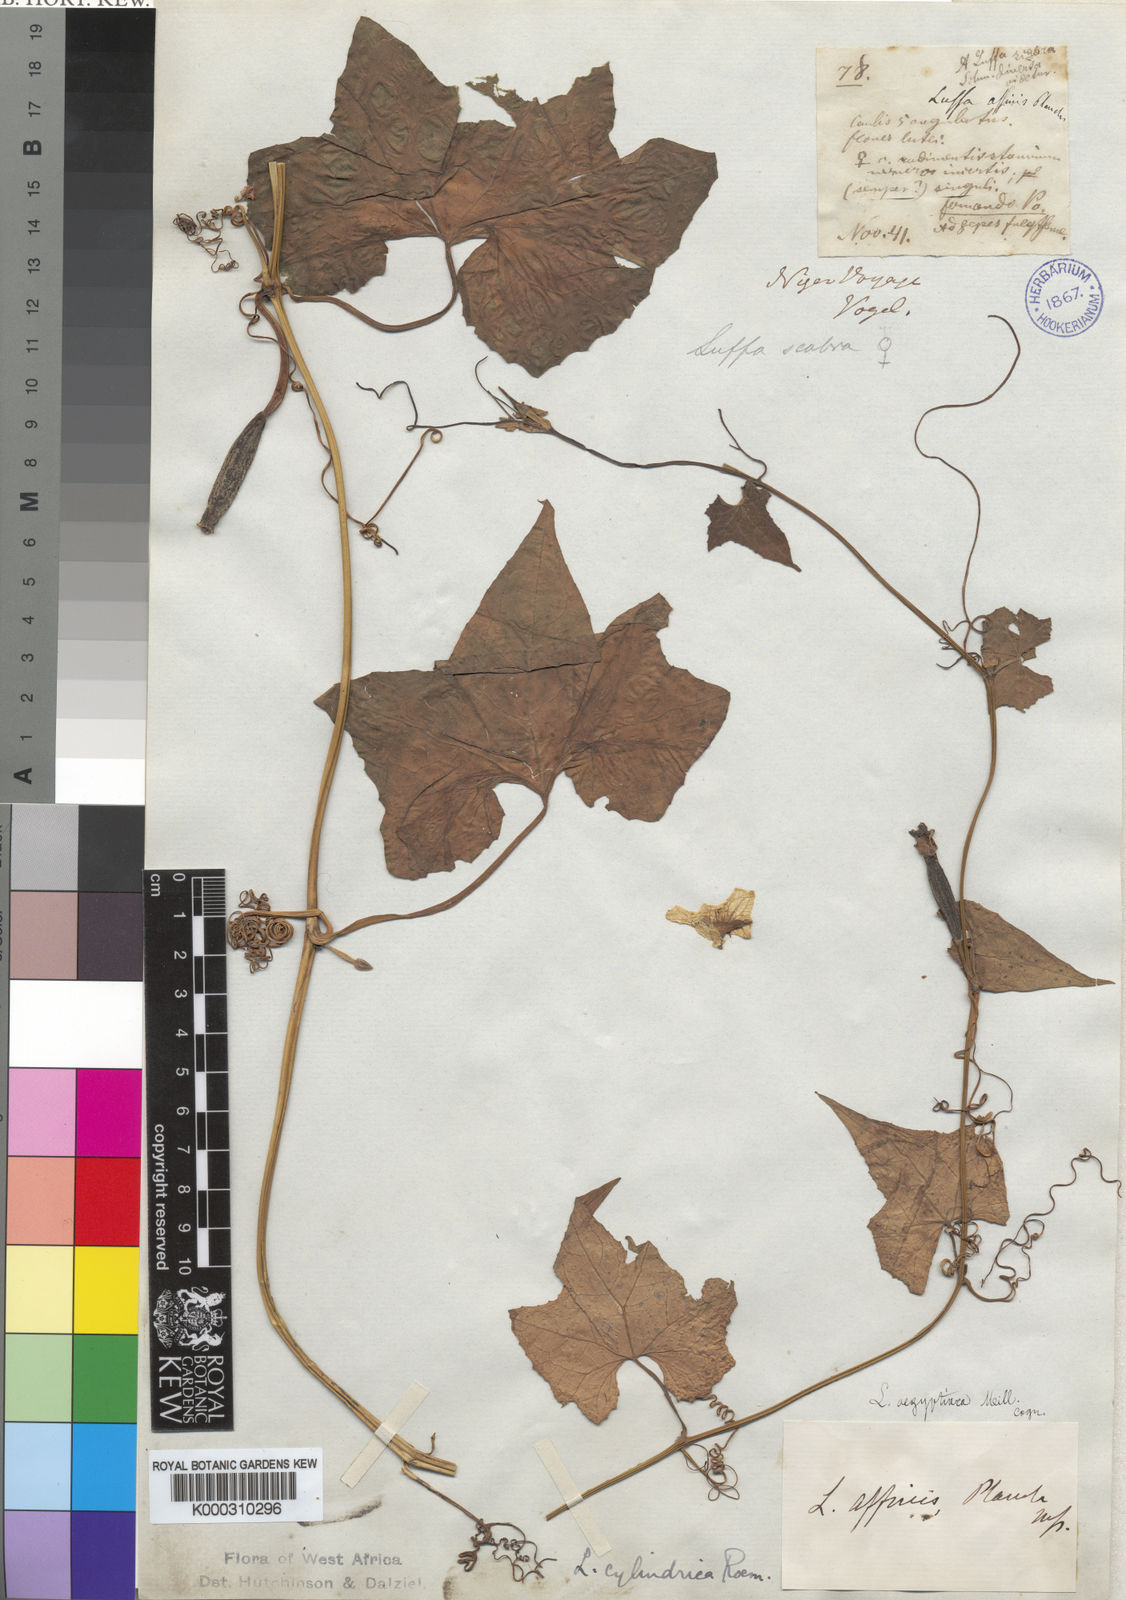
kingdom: Plantae
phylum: Tracheophyta
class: Magnoliopsida
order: Cucurbitales
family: Cucurbitaceae
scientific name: Cucurbitaceae
